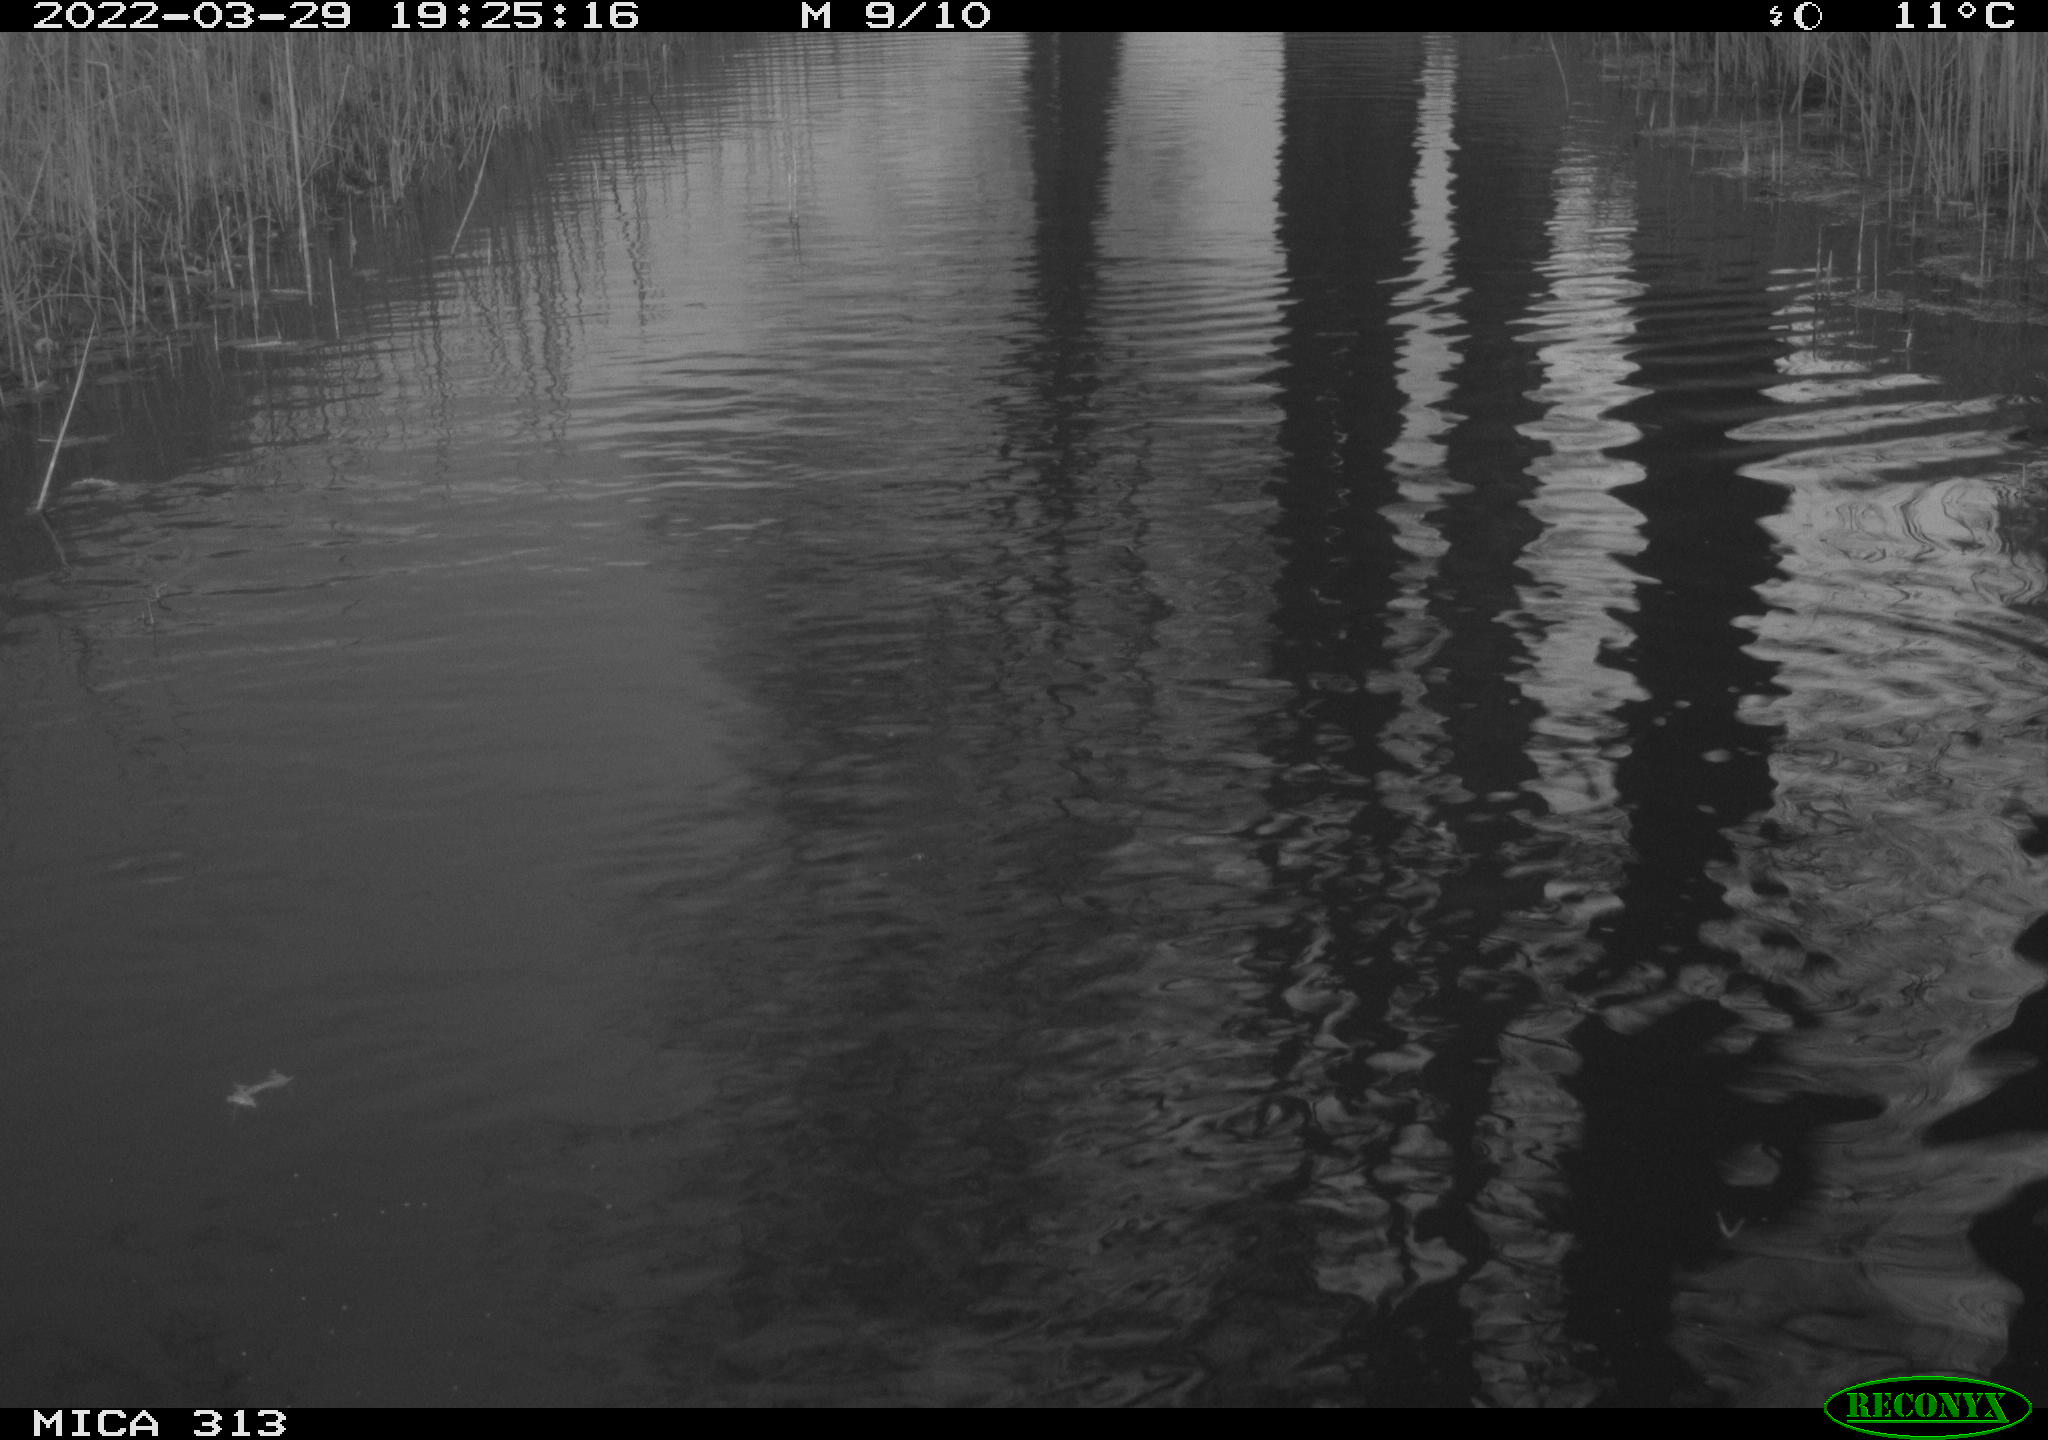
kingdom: Animalia
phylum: Chordata
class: Aves
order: Gruiformes
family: Rallidae
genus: Gallinula
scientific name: Gallinula chloropus
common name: Common moorhen
